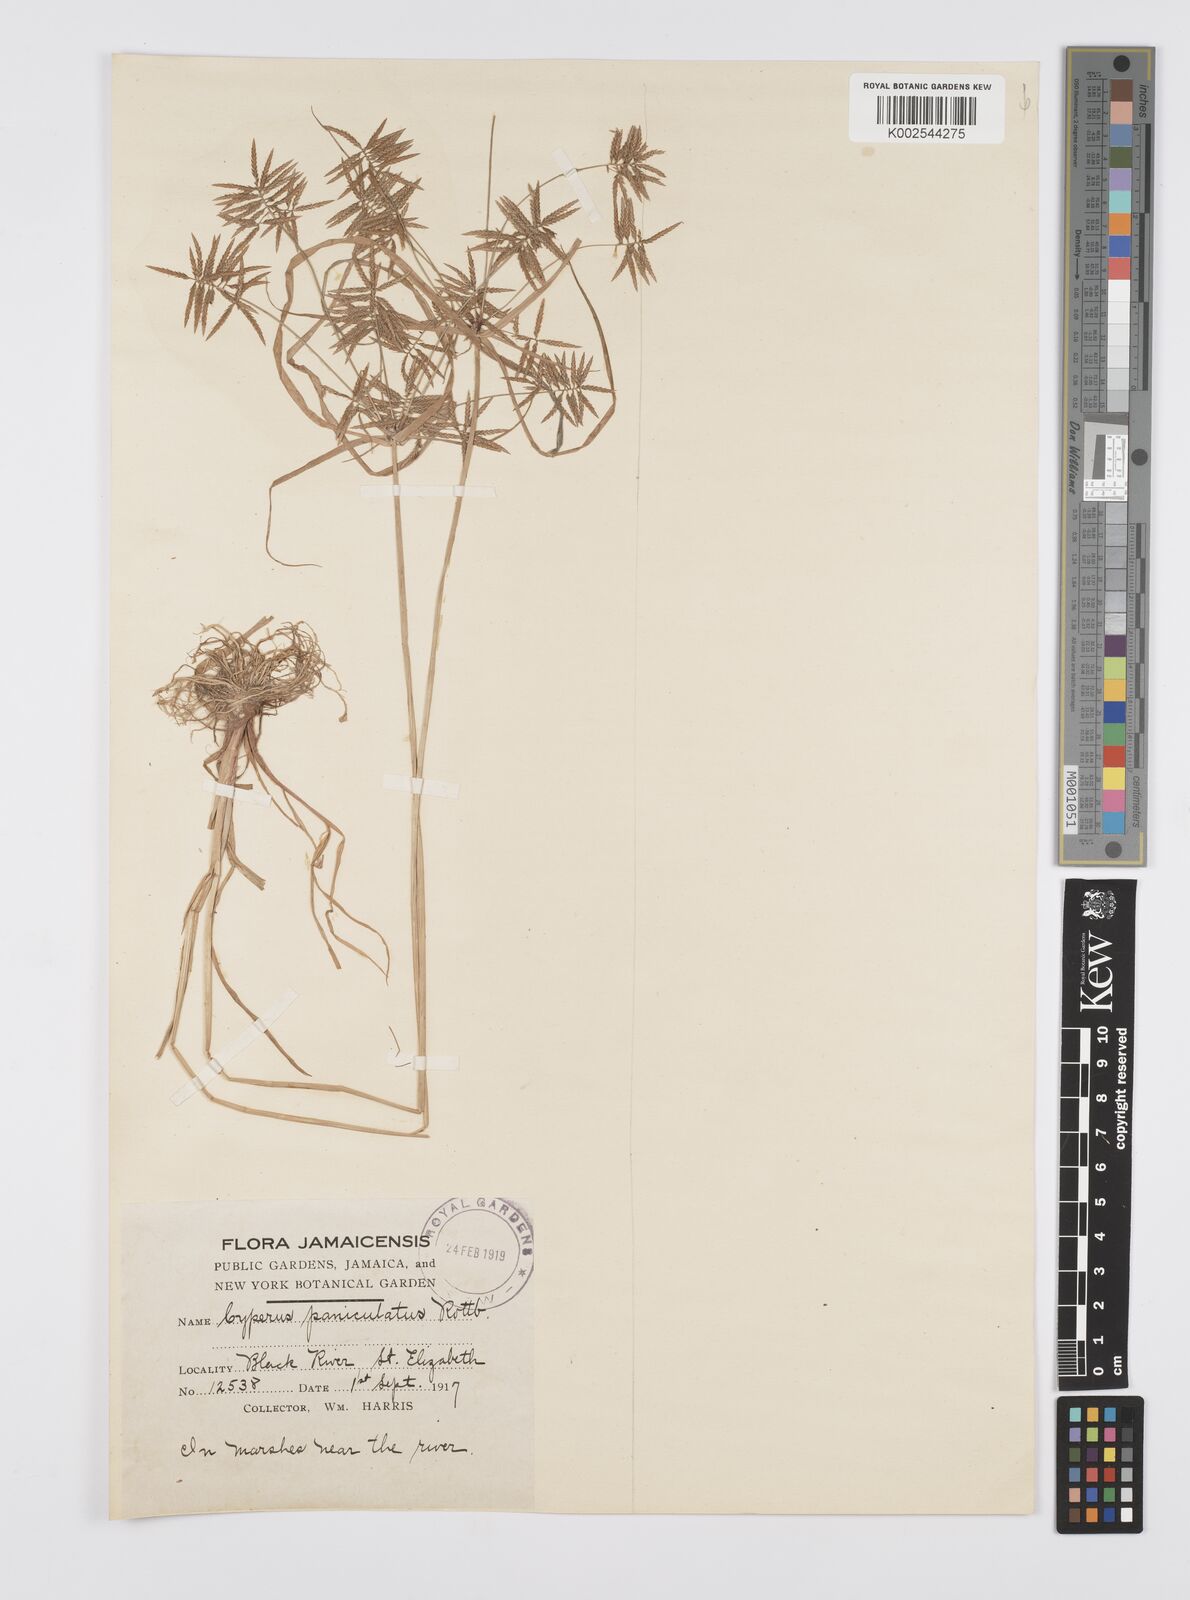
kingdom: Plantae
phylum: Tracheophyta
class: Liliopsida
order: Poales
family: Cyperaceae
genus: Cyperus
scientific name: Cyperus polystachyos
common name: Bunchy flat sedge
